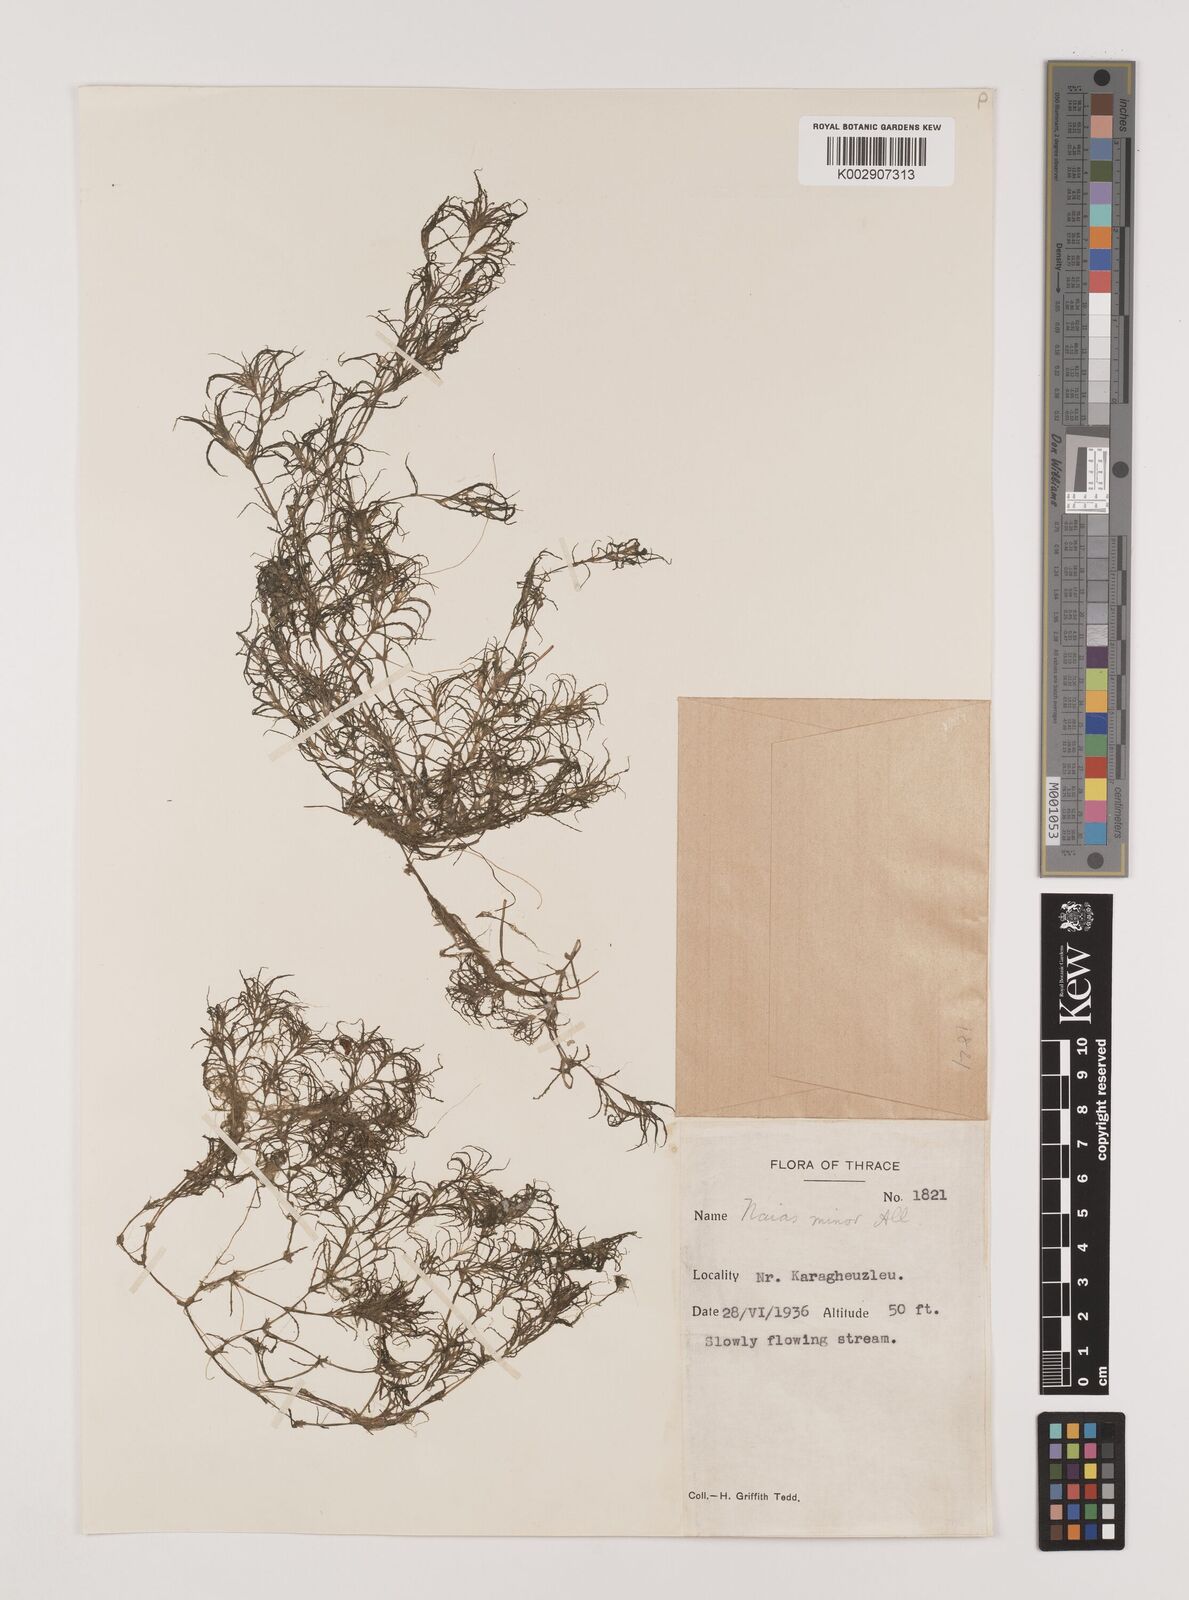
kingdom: Plantae
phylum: Tracheophyta
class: Liliopsida
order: Alismatales
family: Hydrocharitaceae
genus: Najas
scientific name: Najas minor
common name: Brittle naiad
